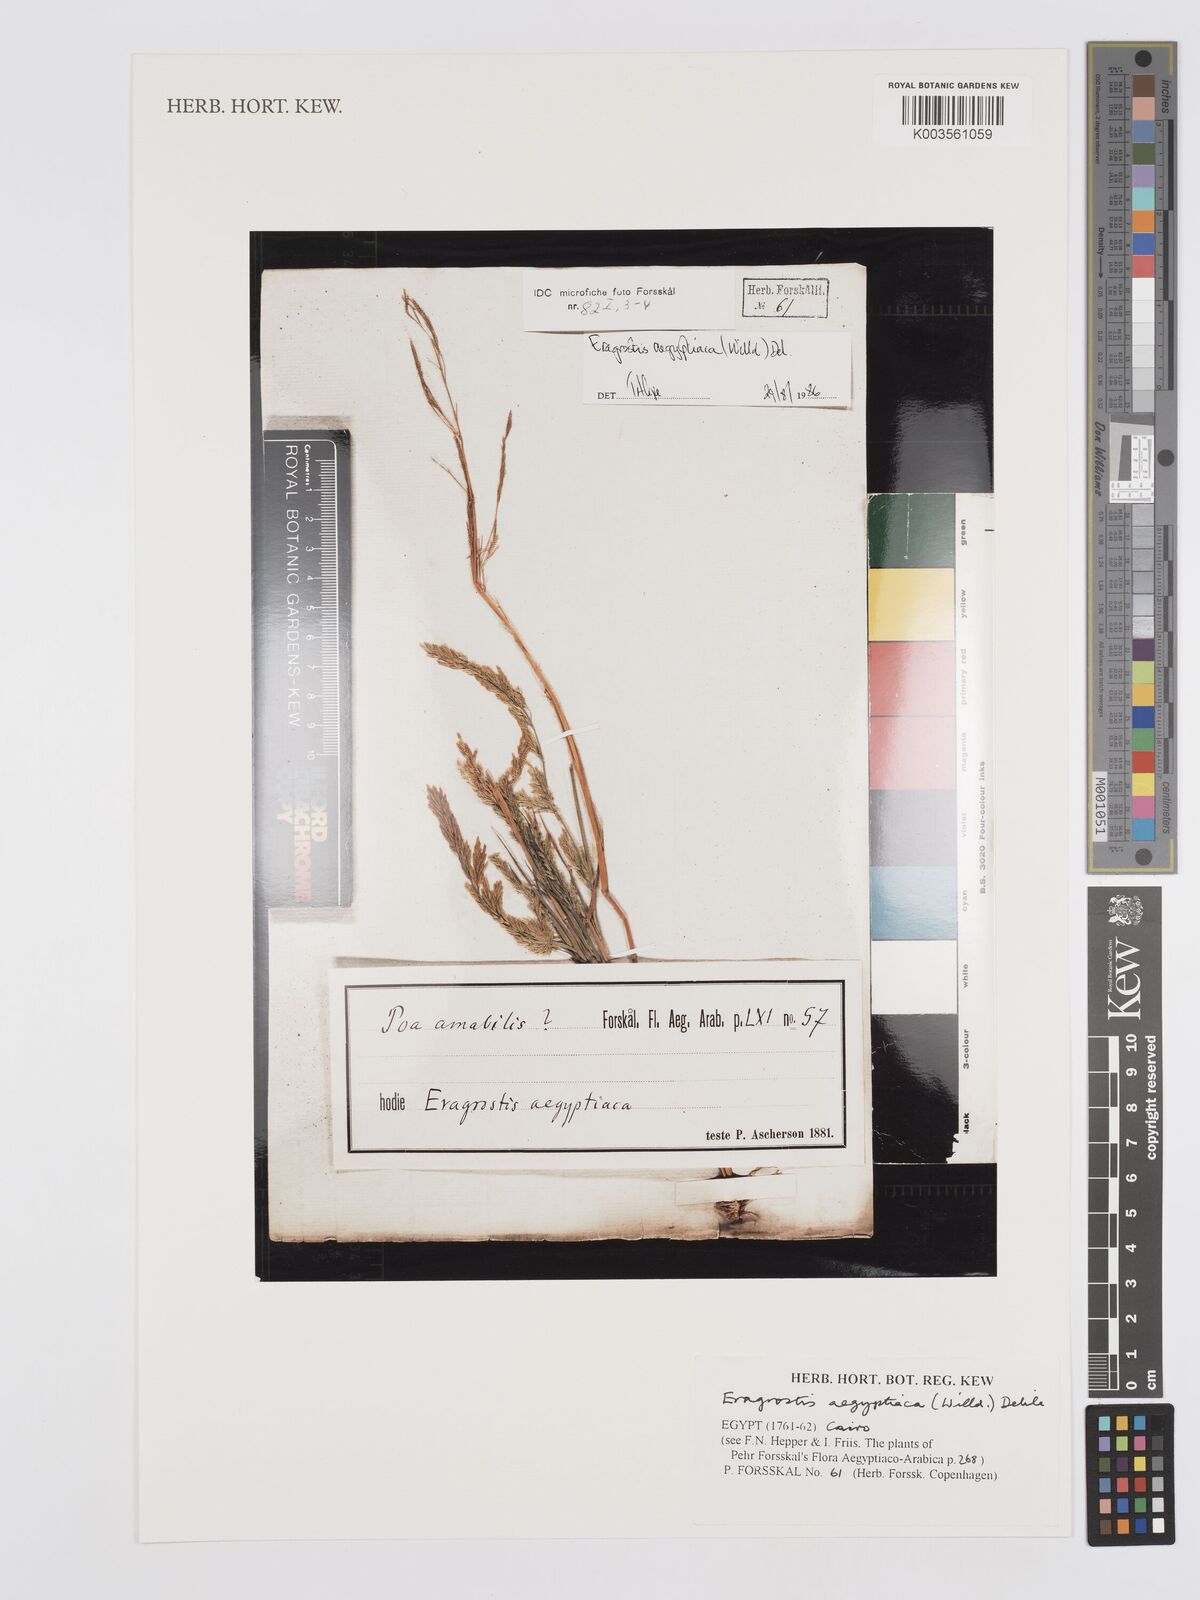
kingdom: Plantae
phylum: Tracheophyta
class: Liliopsida
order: Poales
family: Poaceae
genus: Eragrostis
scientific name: Eragrostis aegyptiaca
